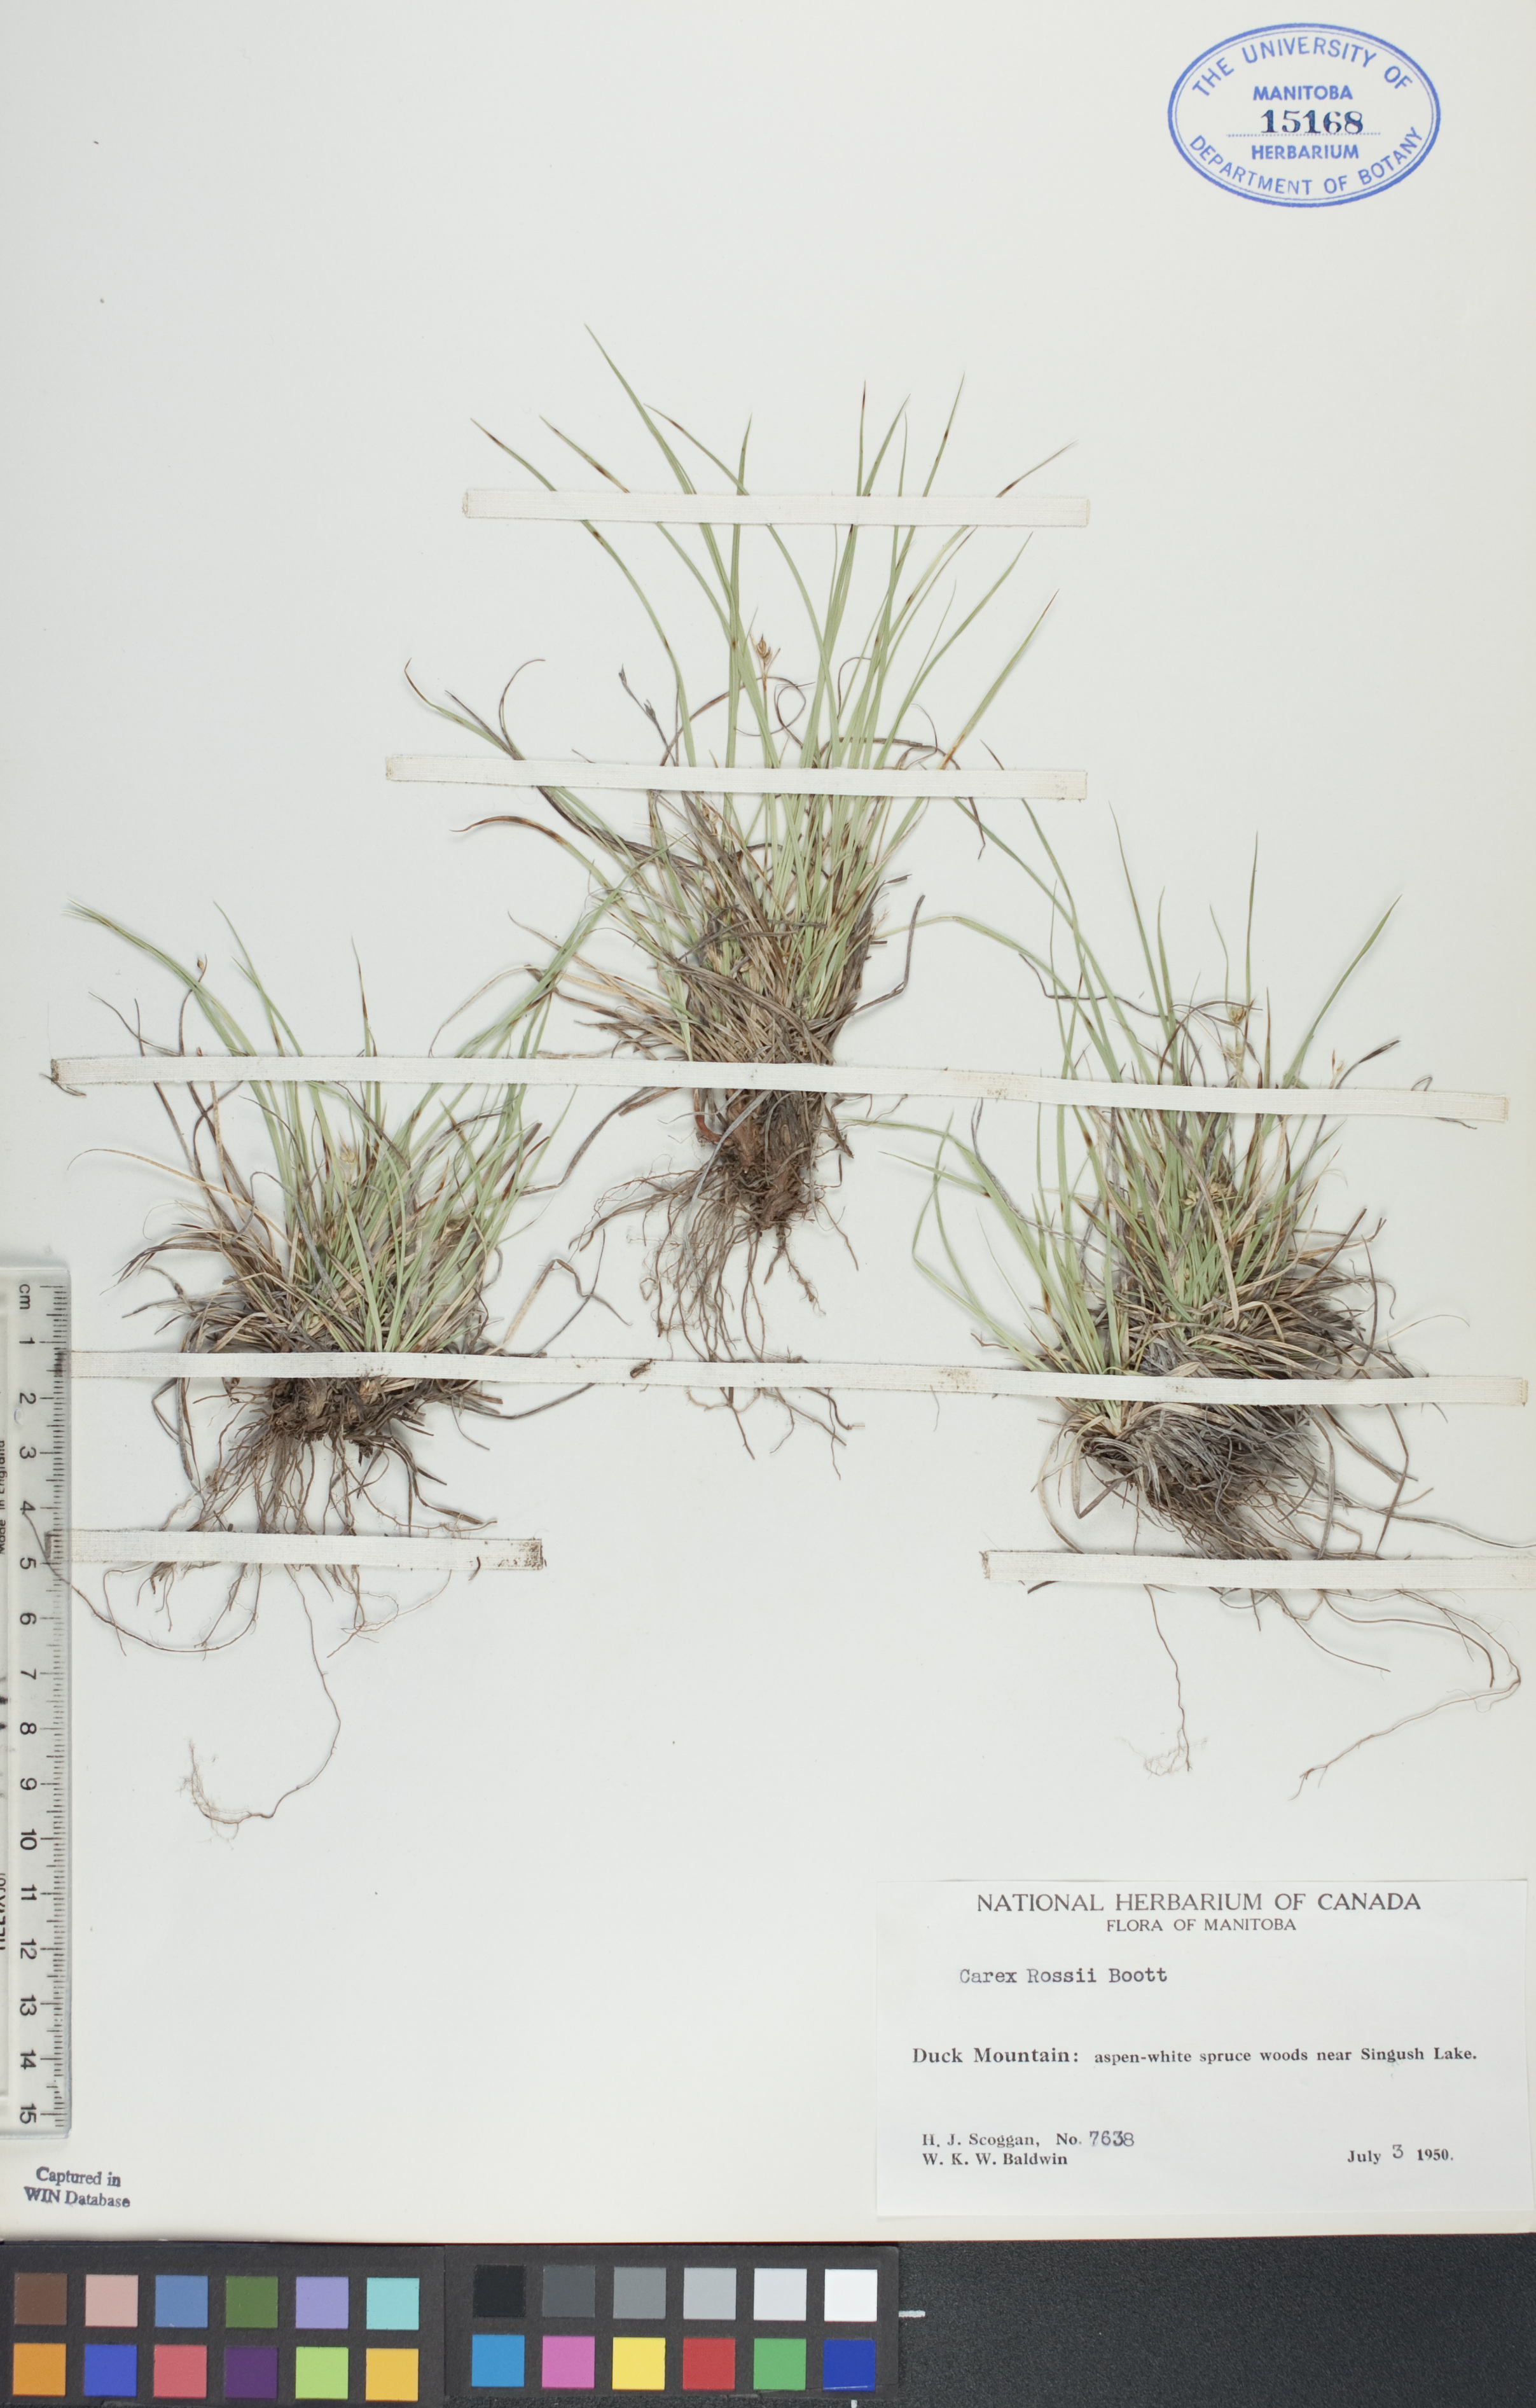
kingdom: Plantae
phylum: Tracheophyta
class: Liliopsida
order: Poales
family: Cyperaceae
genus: Carex
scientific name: Carex rossii
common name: Ross' sedge
